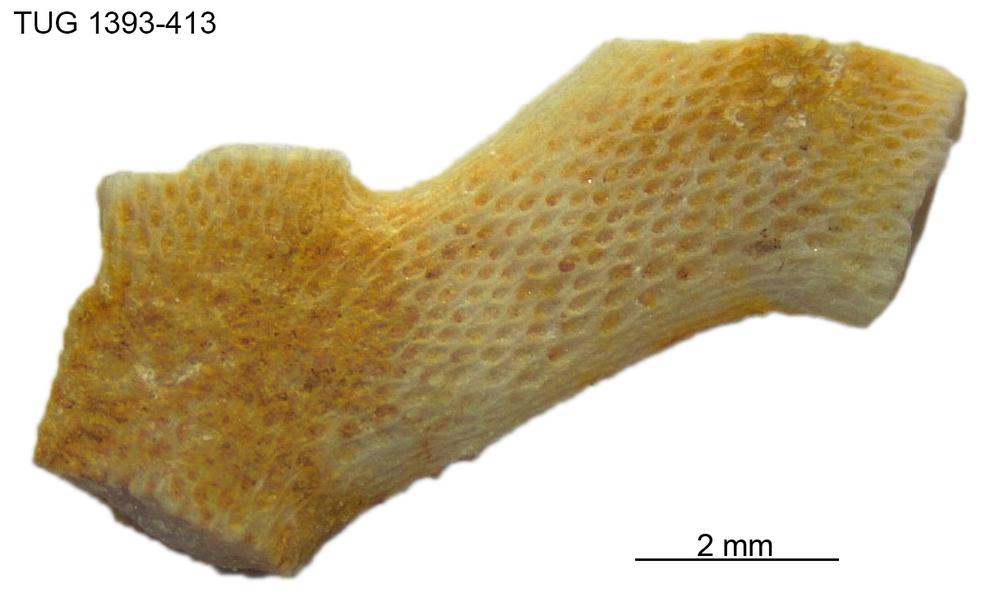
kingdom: Animalia
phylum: Bryozoa
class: Stenolaemata
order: Cryptostomida
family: Escharoporidae
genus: Graptodictya
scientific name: Graptodictya
